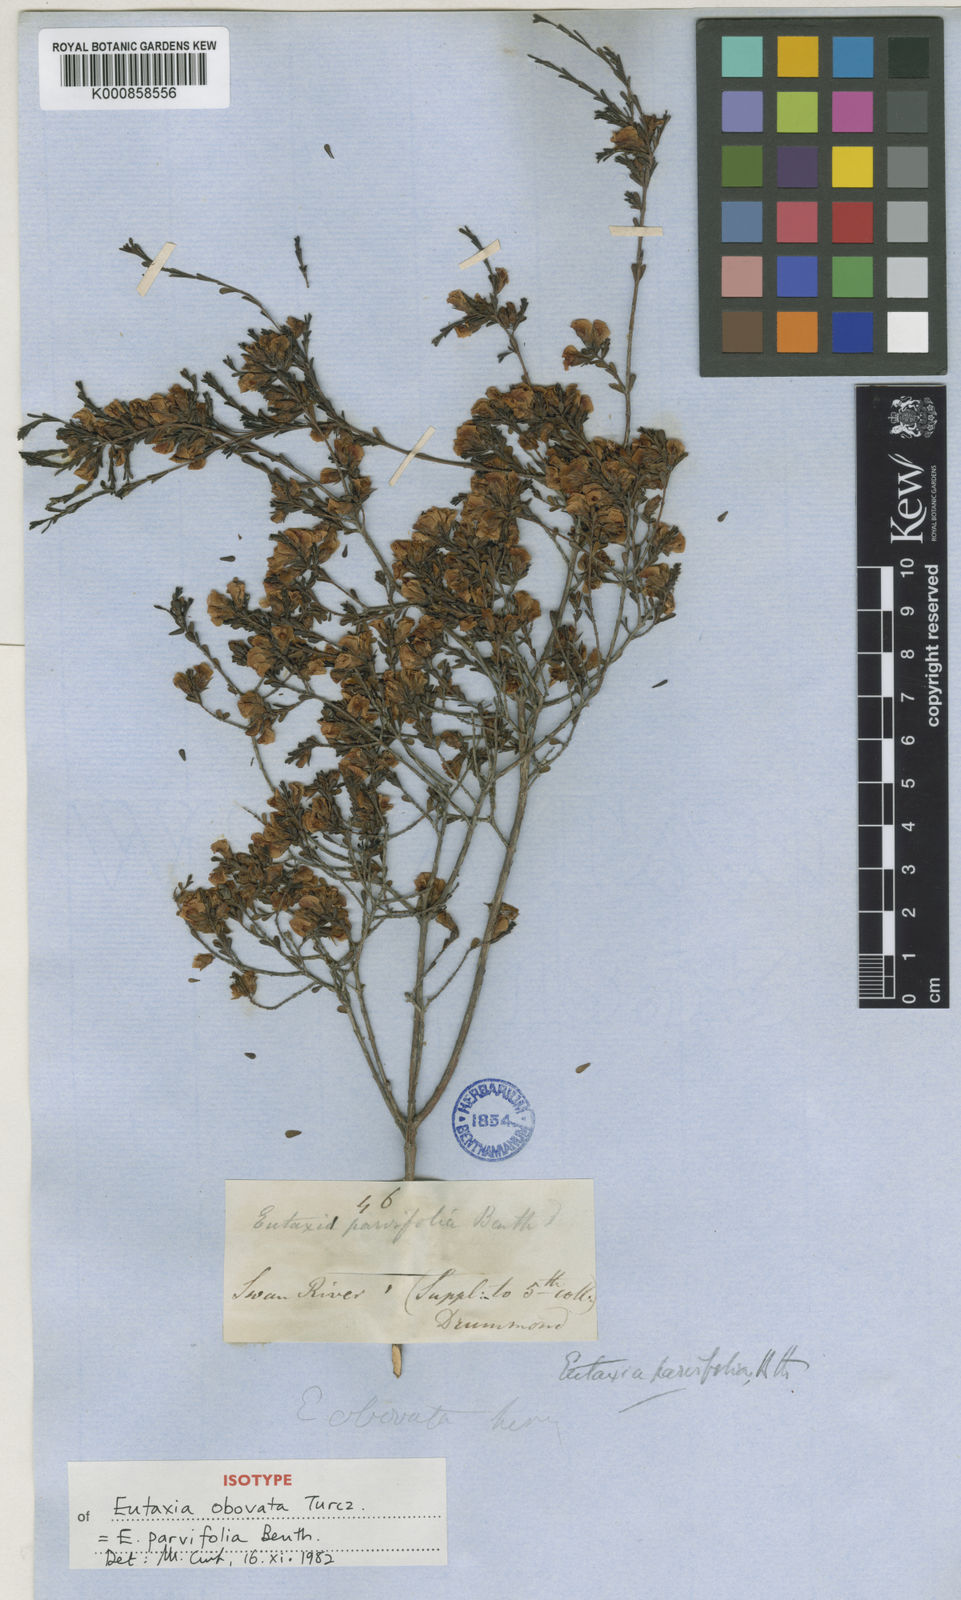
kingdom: Plantae
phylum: Tracheophyta
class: Magnoliopsida
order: Fabales
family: Fabaceae
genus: Eutaxia
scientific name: Eutaxia parvifolia
